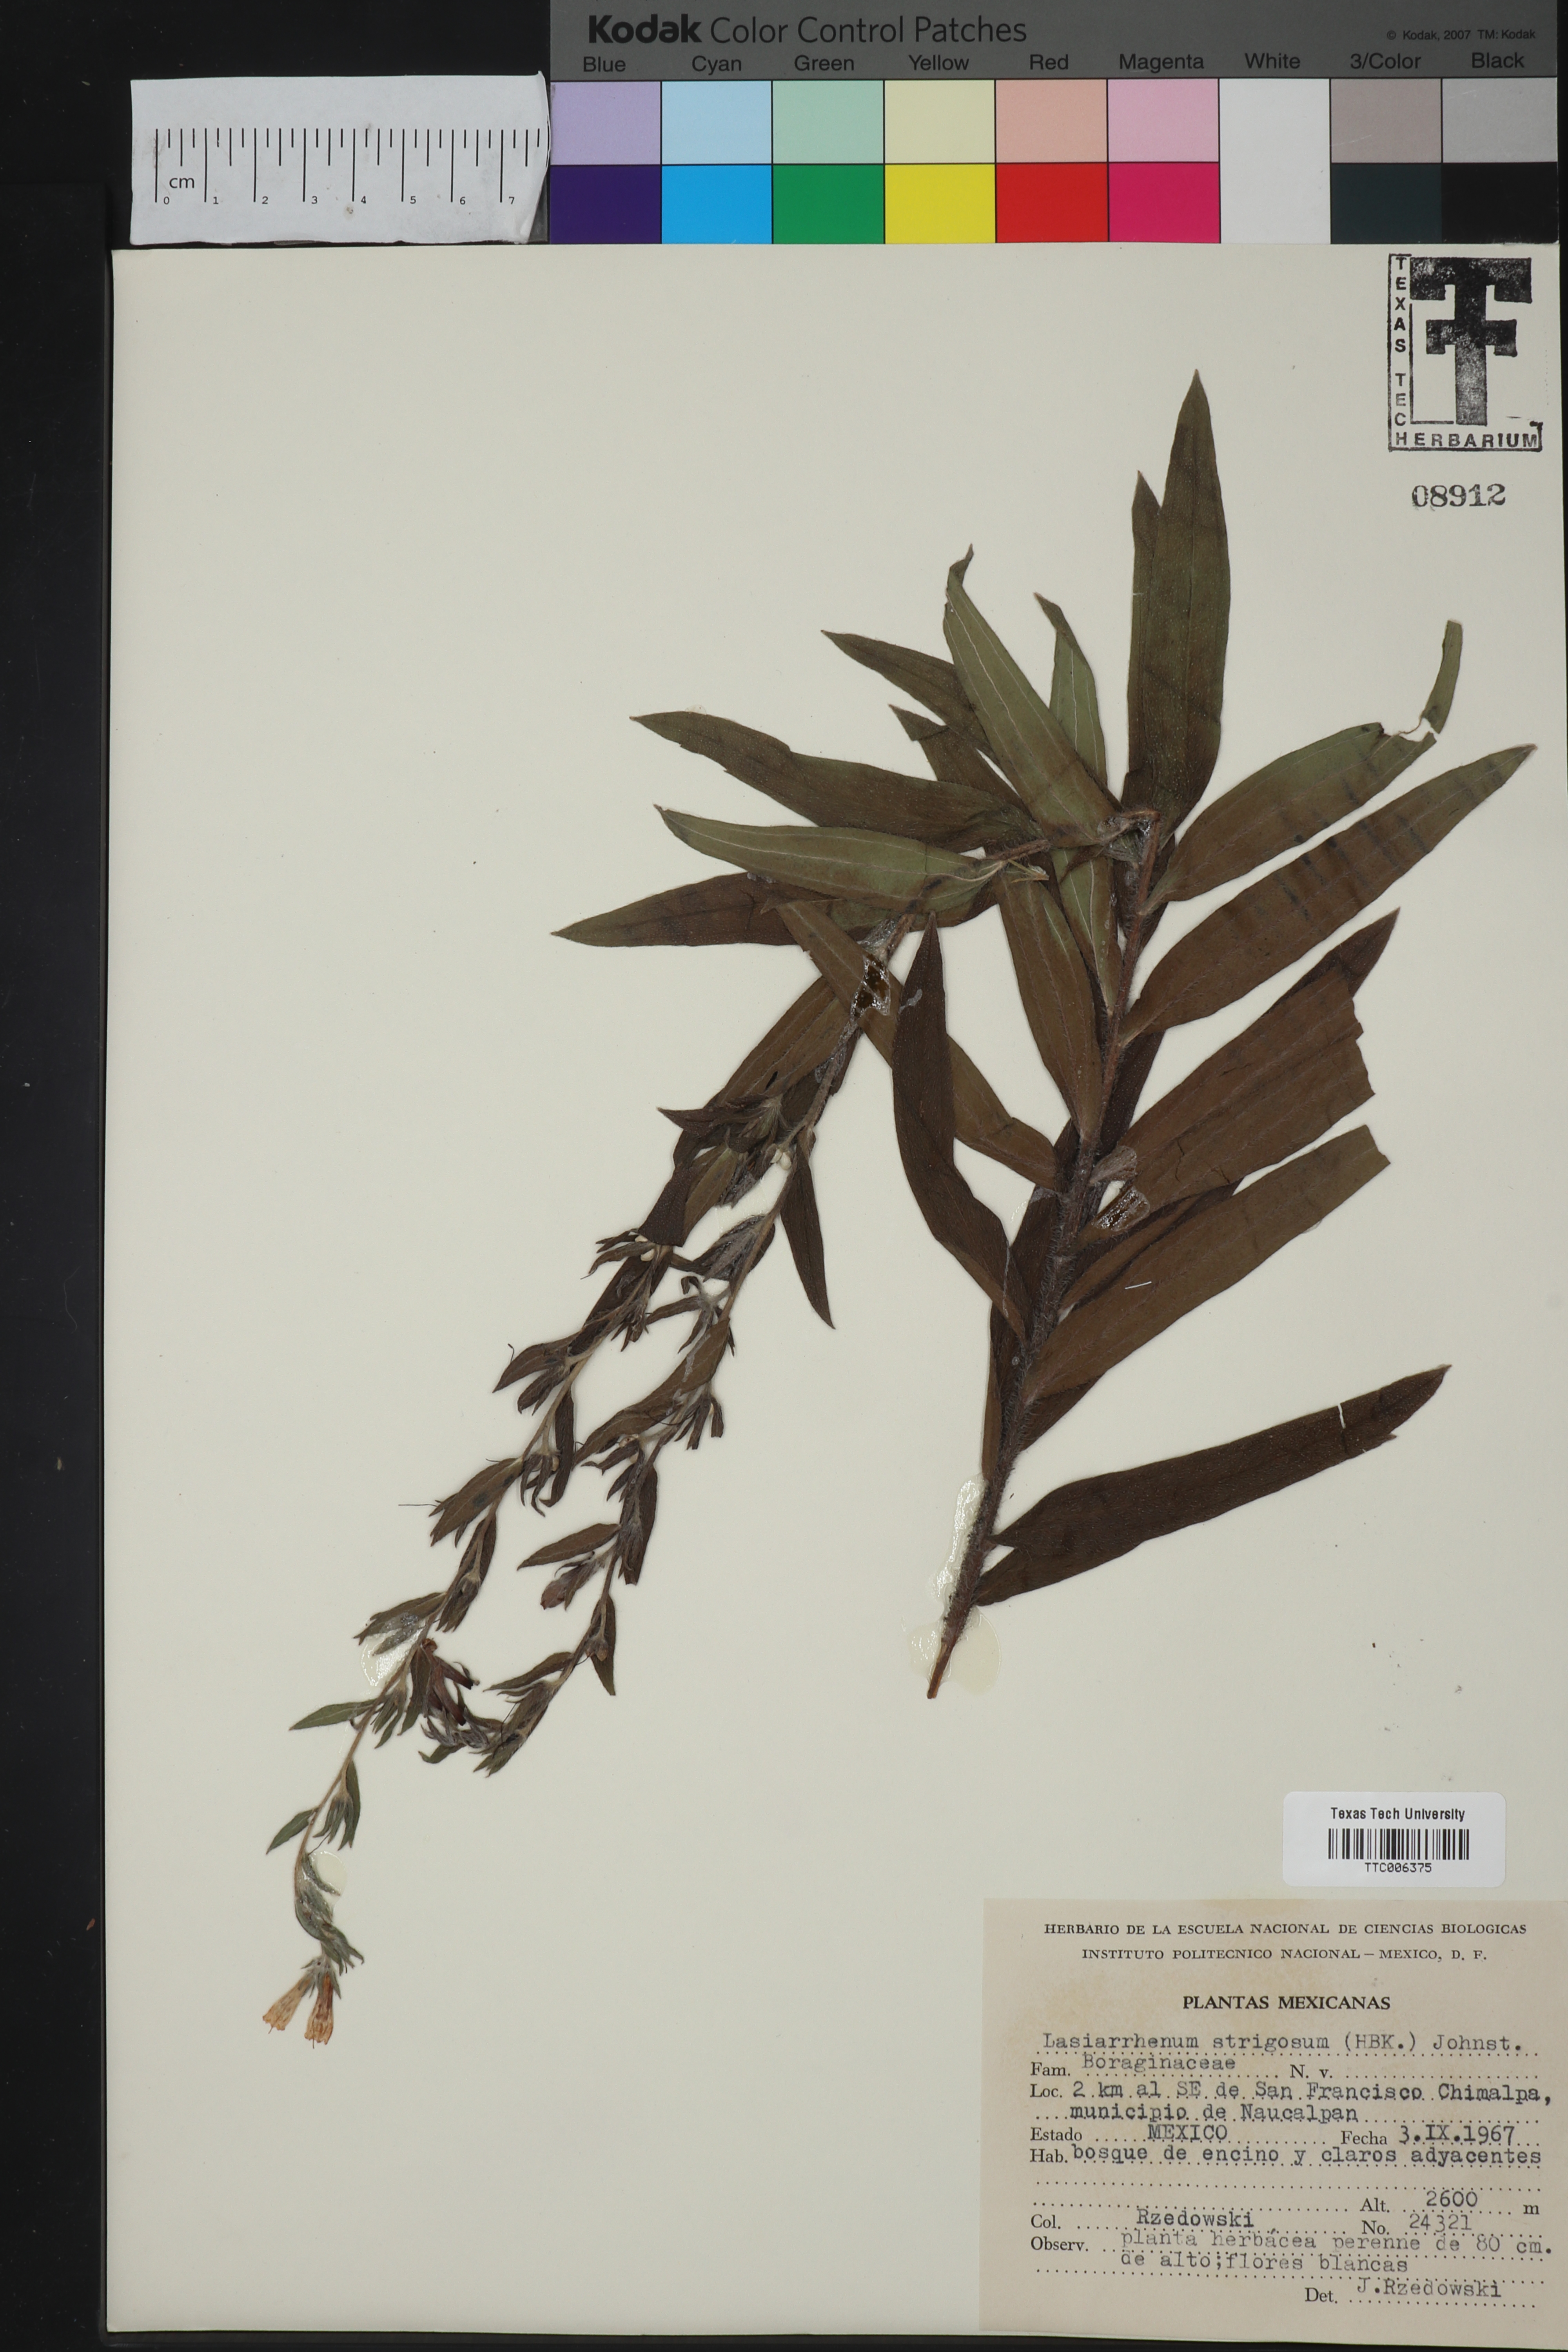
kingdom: Plantae
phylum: Tracheophyta
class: Magnoliopsida
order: Boraginales
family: Boraginaceae
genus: Lithospermum
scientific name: Lithospermum trinervium
